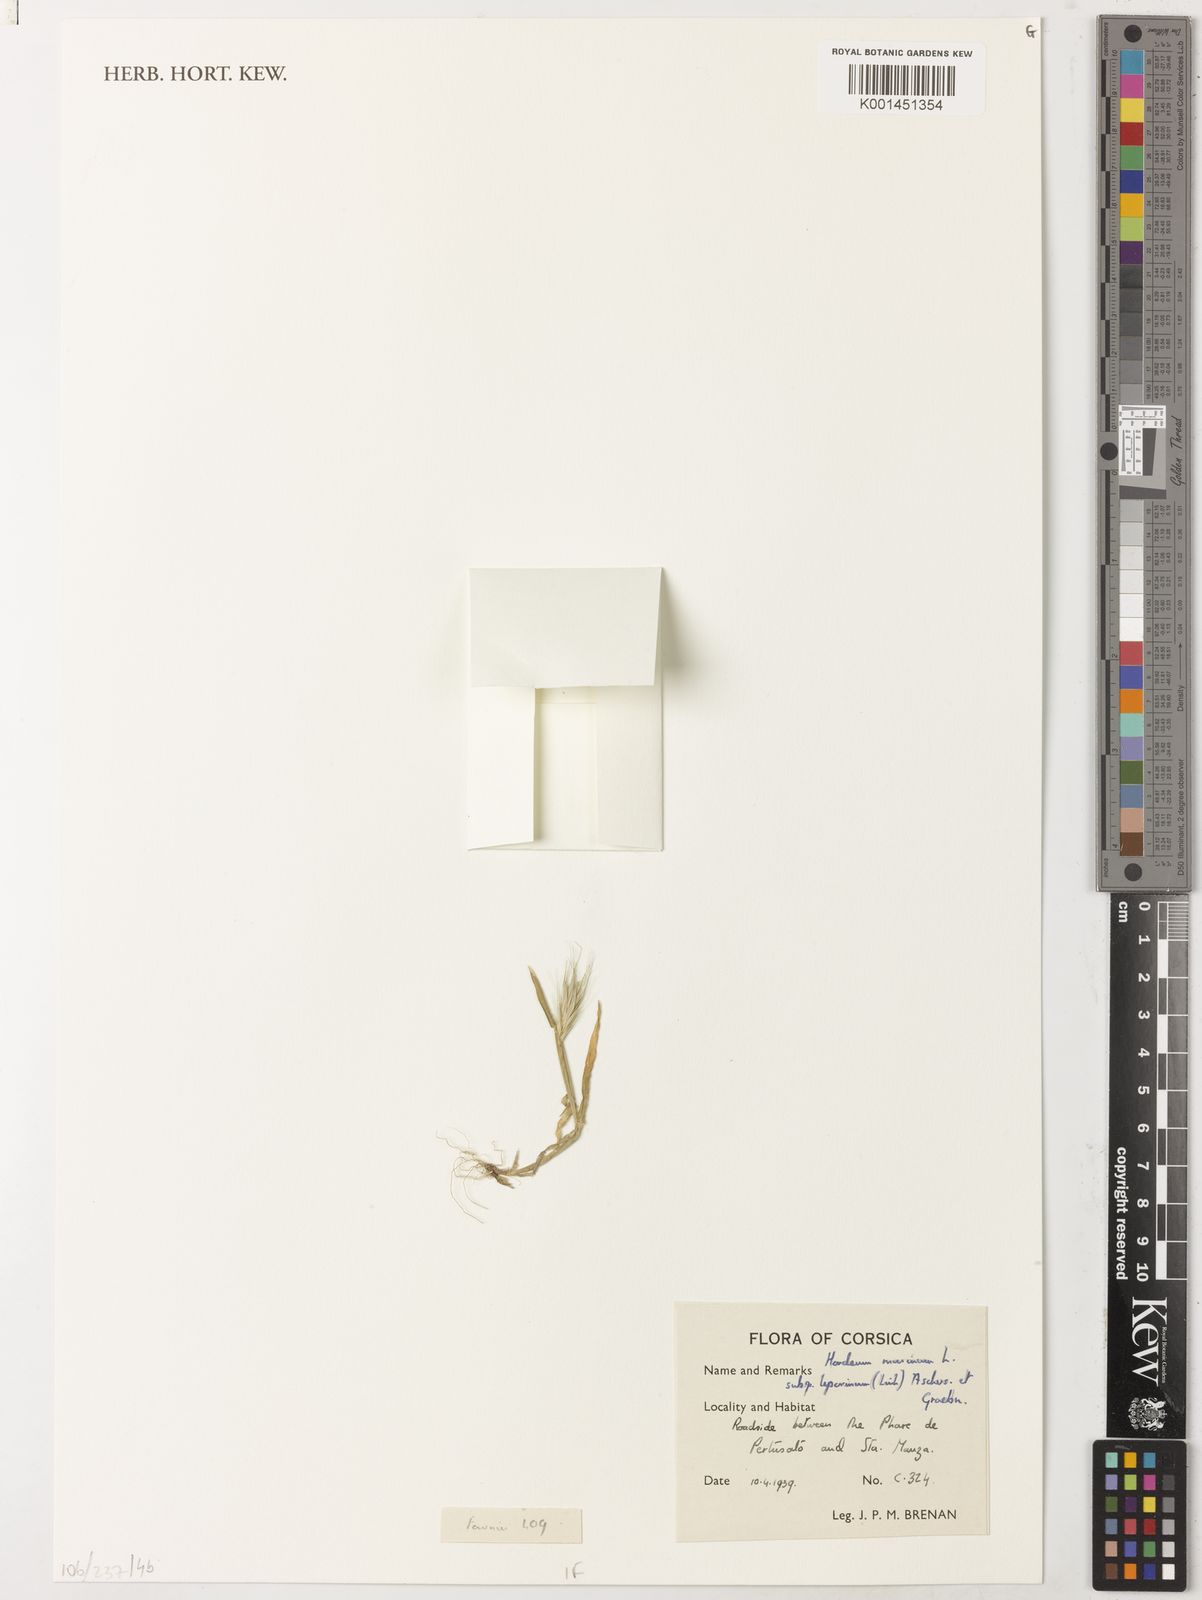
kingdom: Plantae
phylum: Tracheophyta
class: Liliopsida
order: Poales
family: Poaceae
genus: Hordeum
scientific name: Hordeum murinum
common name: Wall barley
